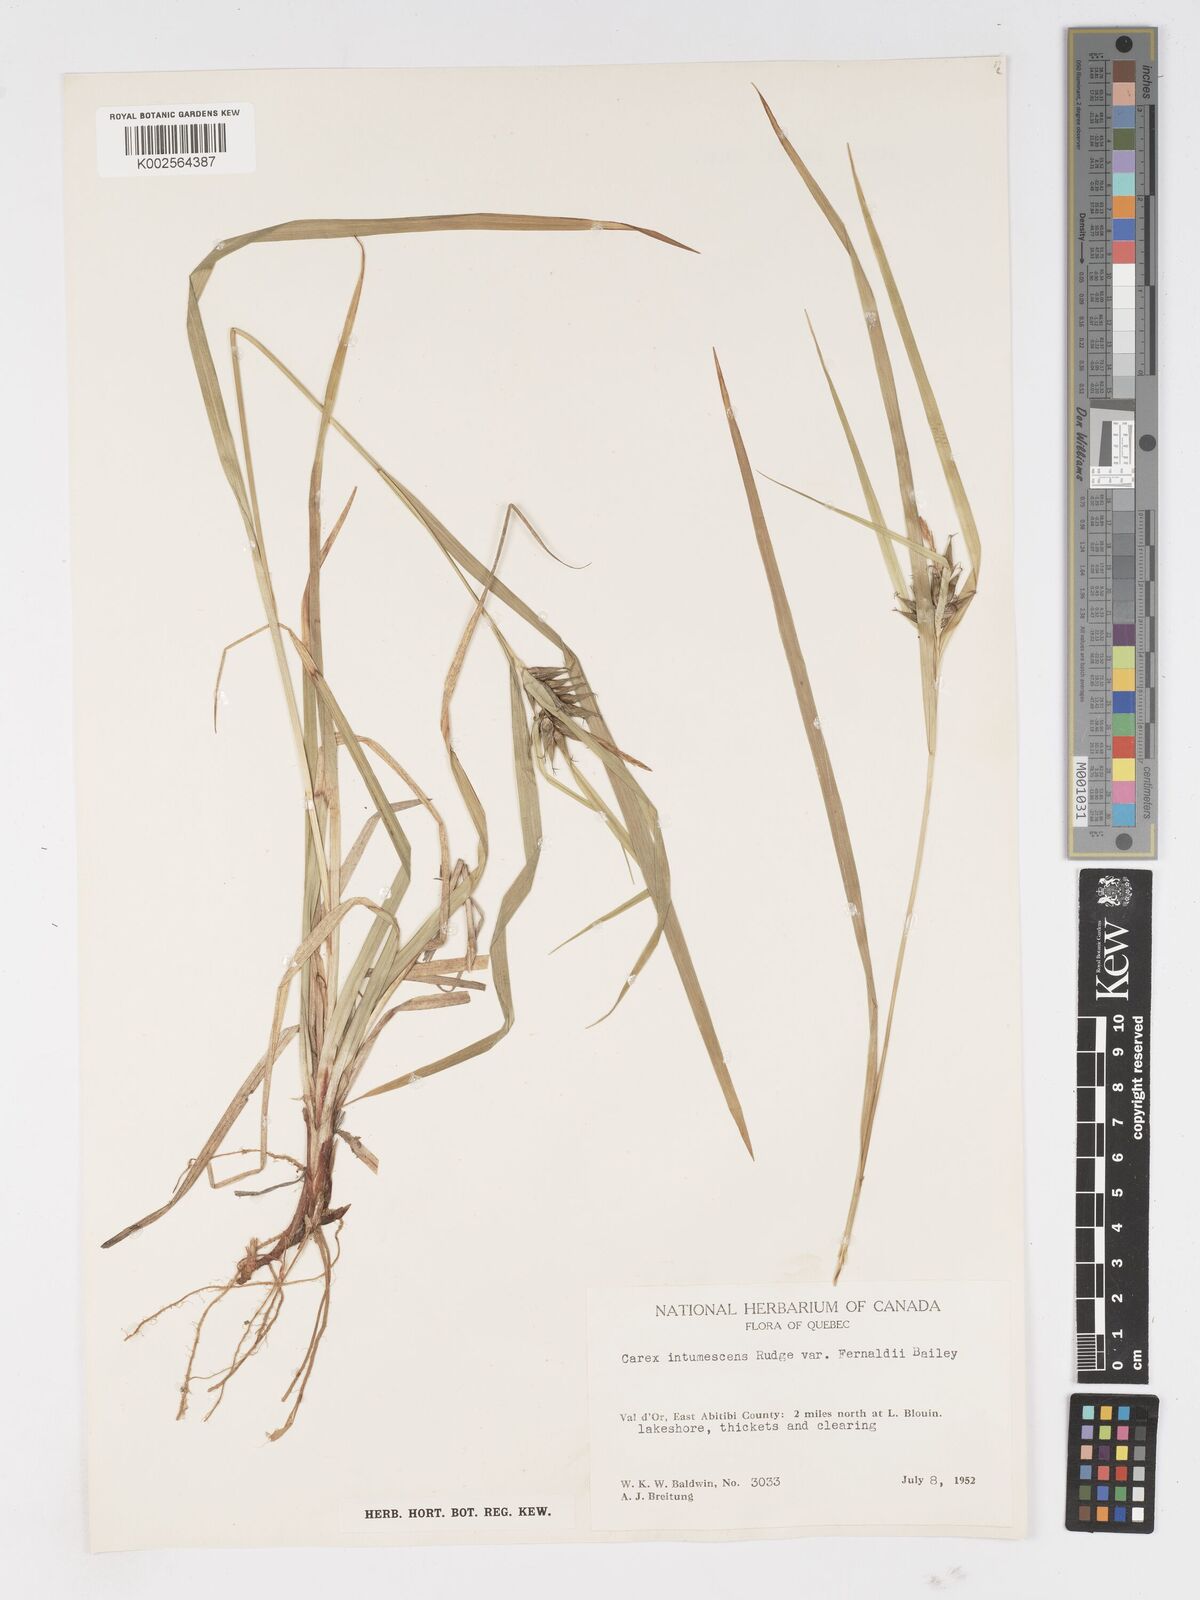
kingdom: Plantae
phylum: Tracheophyta
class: Liliopsida
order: Poales
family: Cyperaceae
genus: Carex
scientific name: Carex intumescens
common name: Greater bladder sedge
